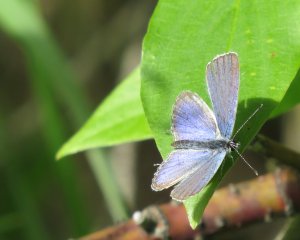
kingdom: Animalia
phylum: Arthropoda
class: Insecta
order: Lepidoptera
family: Lycaenidae
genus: Elkalyce
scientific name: Elkalyce amyntula
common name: Western Tailed-Blue
